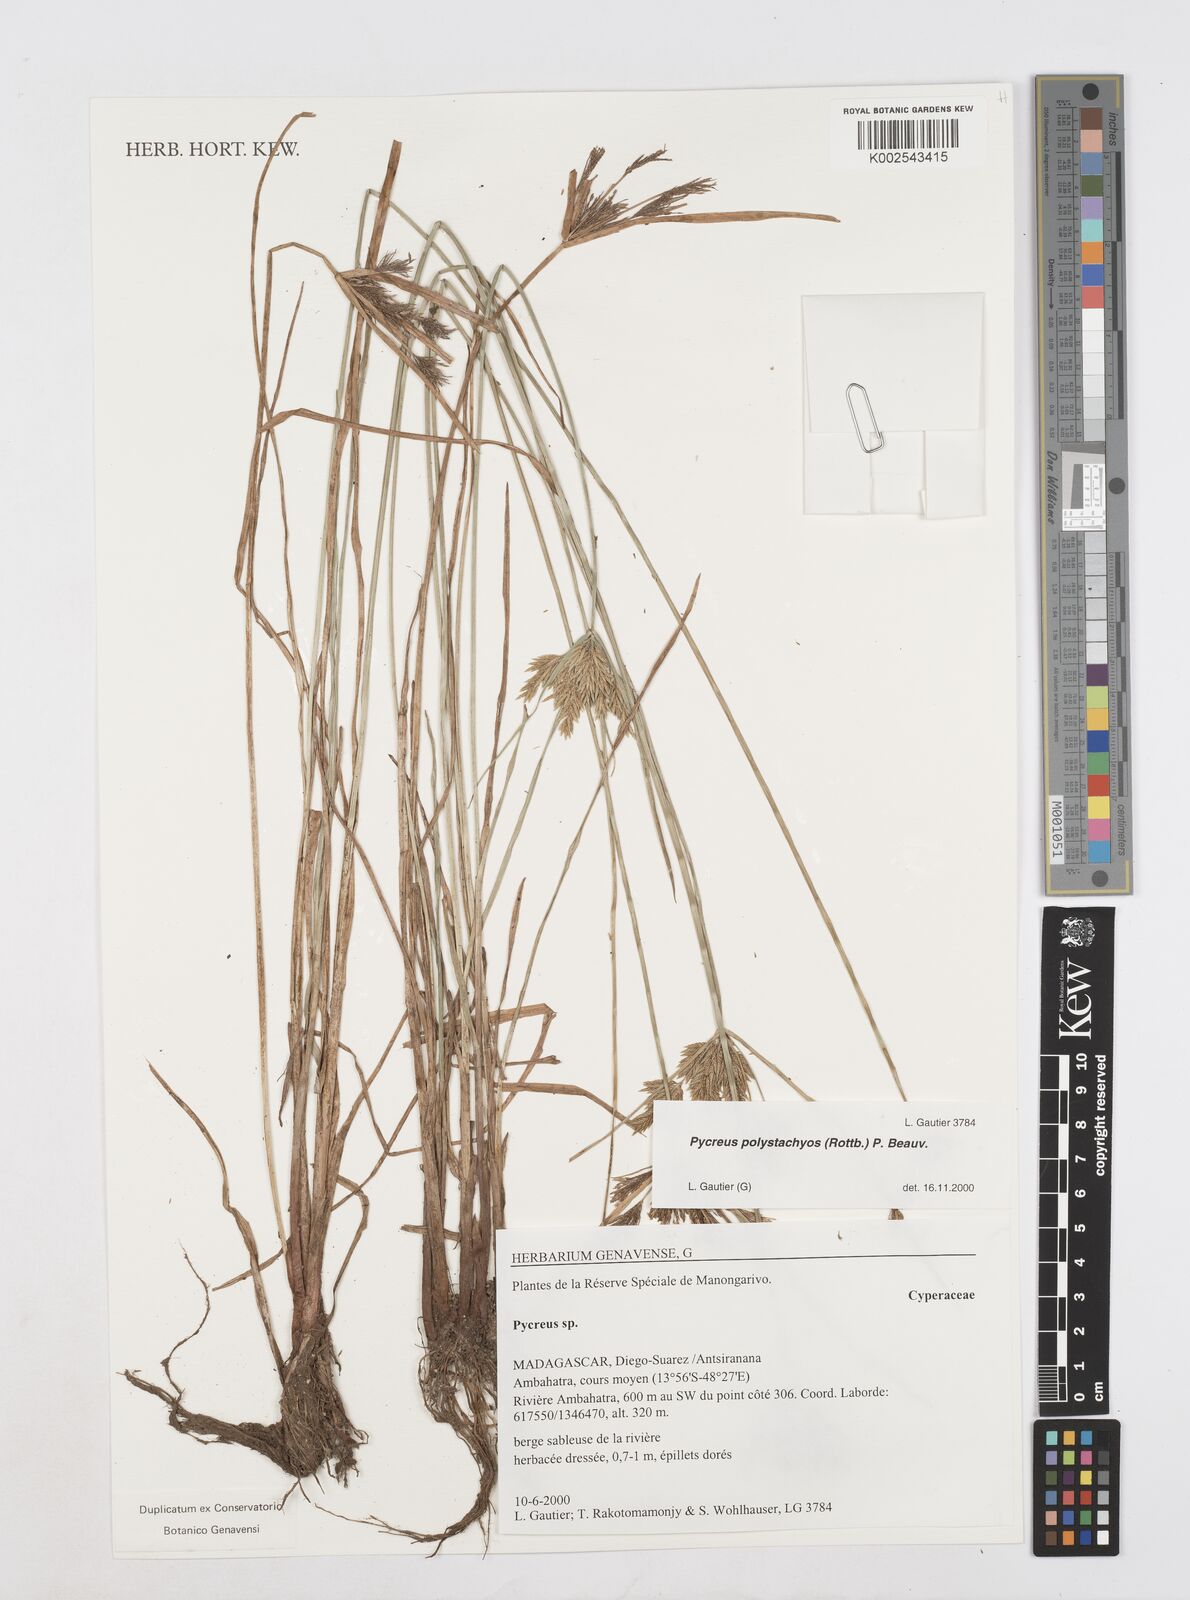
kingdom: Plantae
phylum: Tracheophyta
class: Liliopsida
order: Poales
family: Cyperaceae
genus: Cyperus
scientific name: Cyperus polystachyos
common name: Bunchy flat sedge
